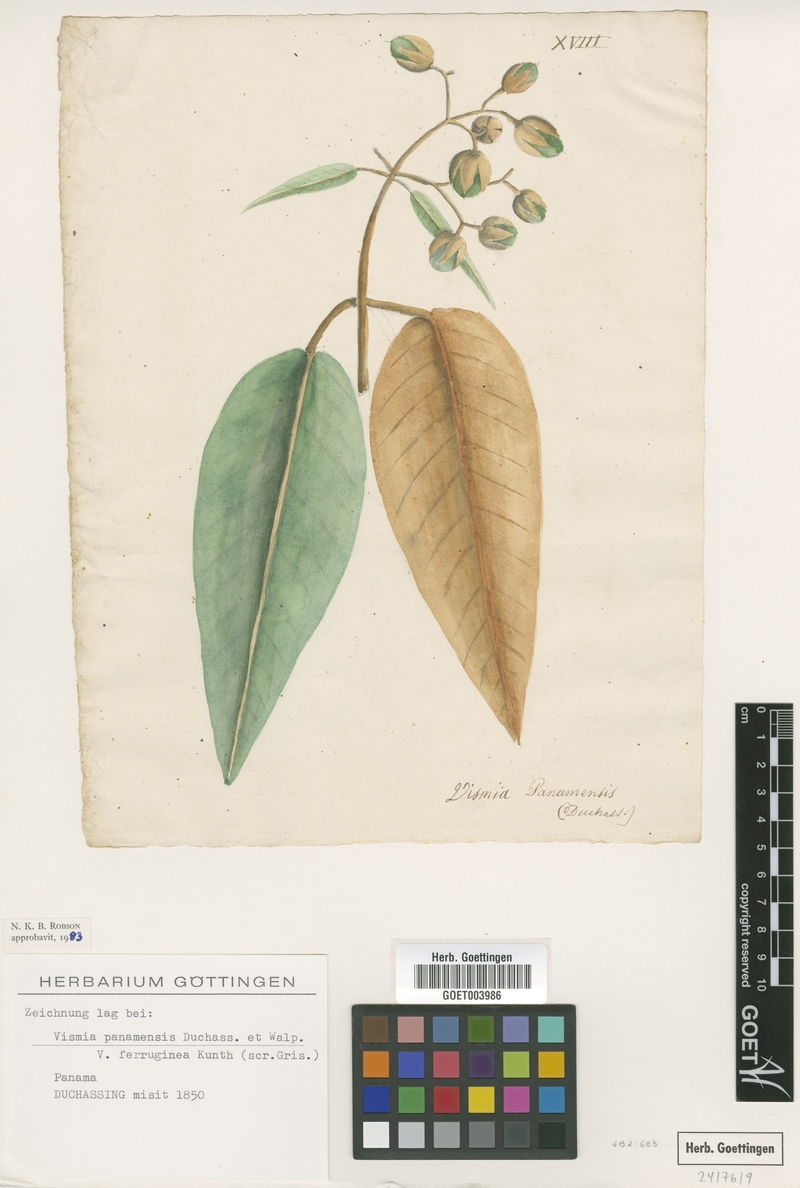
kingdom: Plantae
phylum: Tracheophyta
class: Magnoliopsida
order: Malpighiales
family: Hypericaceae
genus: Vismia
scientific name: Vismia baccifera
